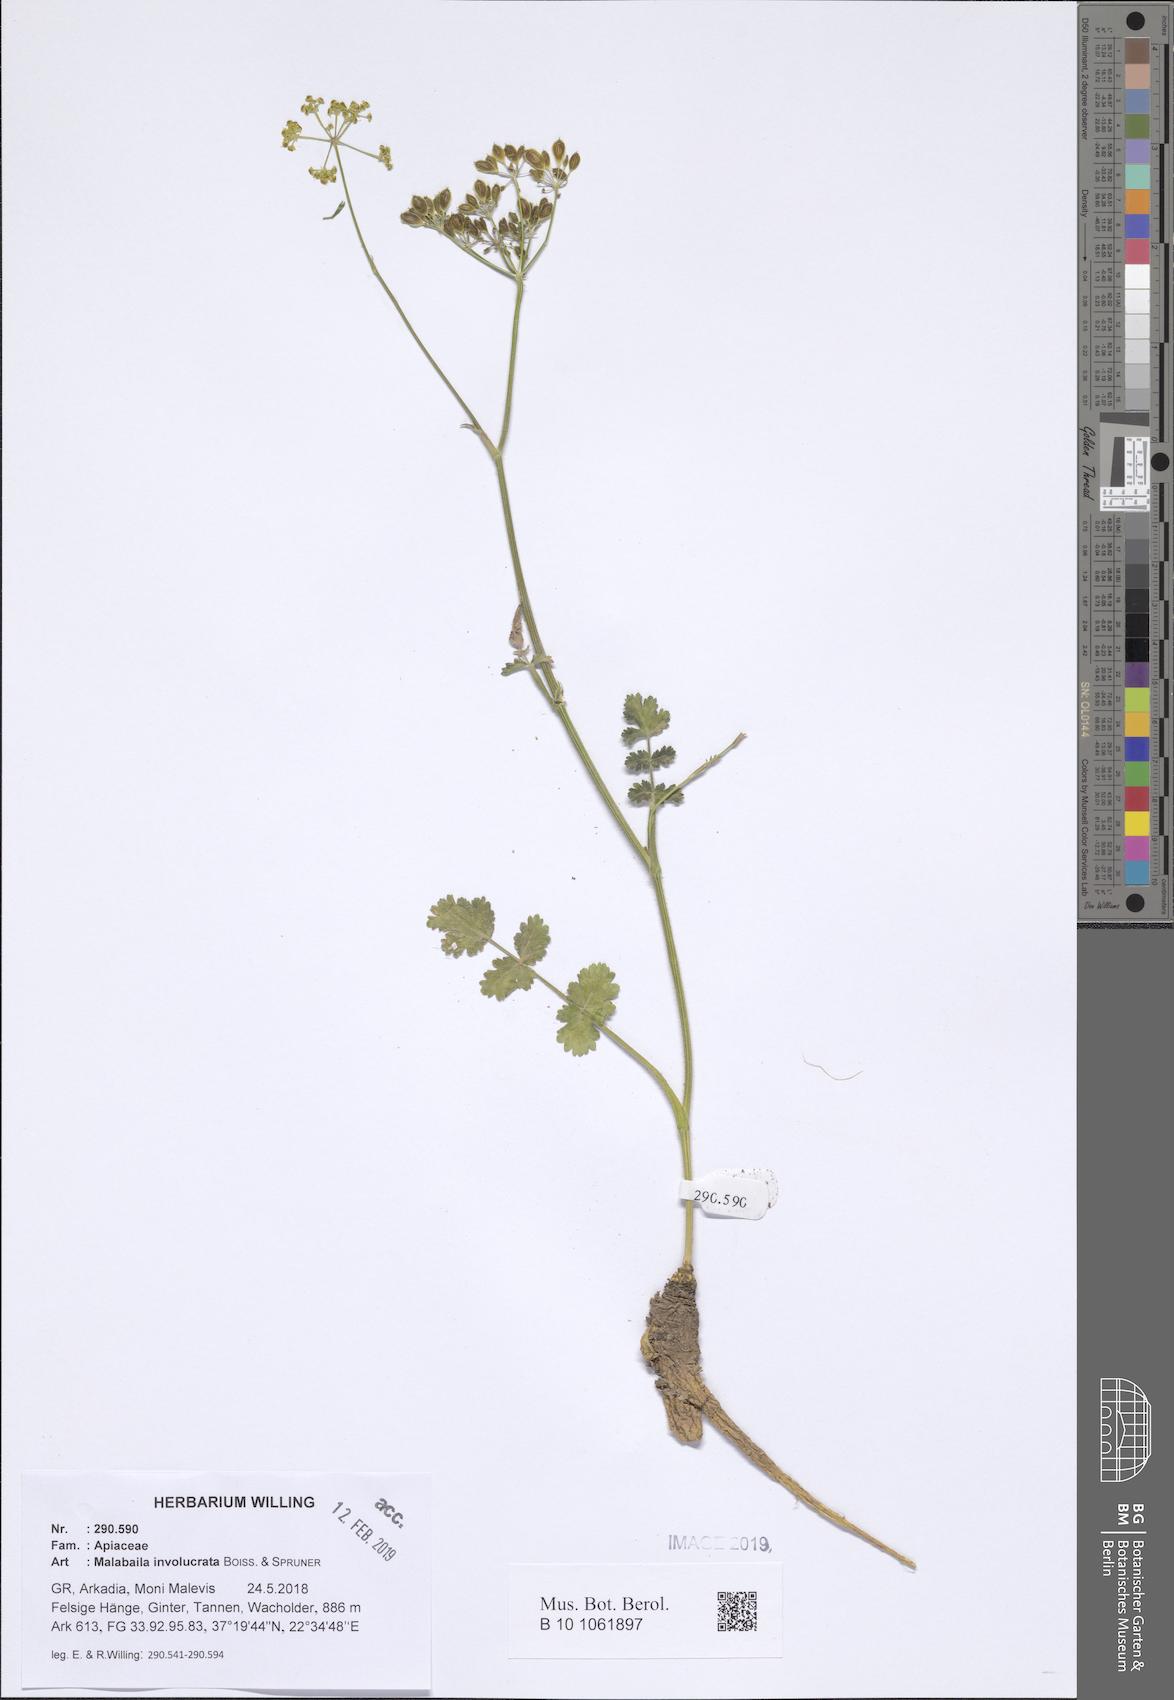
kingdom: Plantae
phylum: Tracheophyta
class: Magnoliopsida
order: Apiales
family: Apiaceae
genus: Leiotulus
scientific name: Leiotulus involucratus
